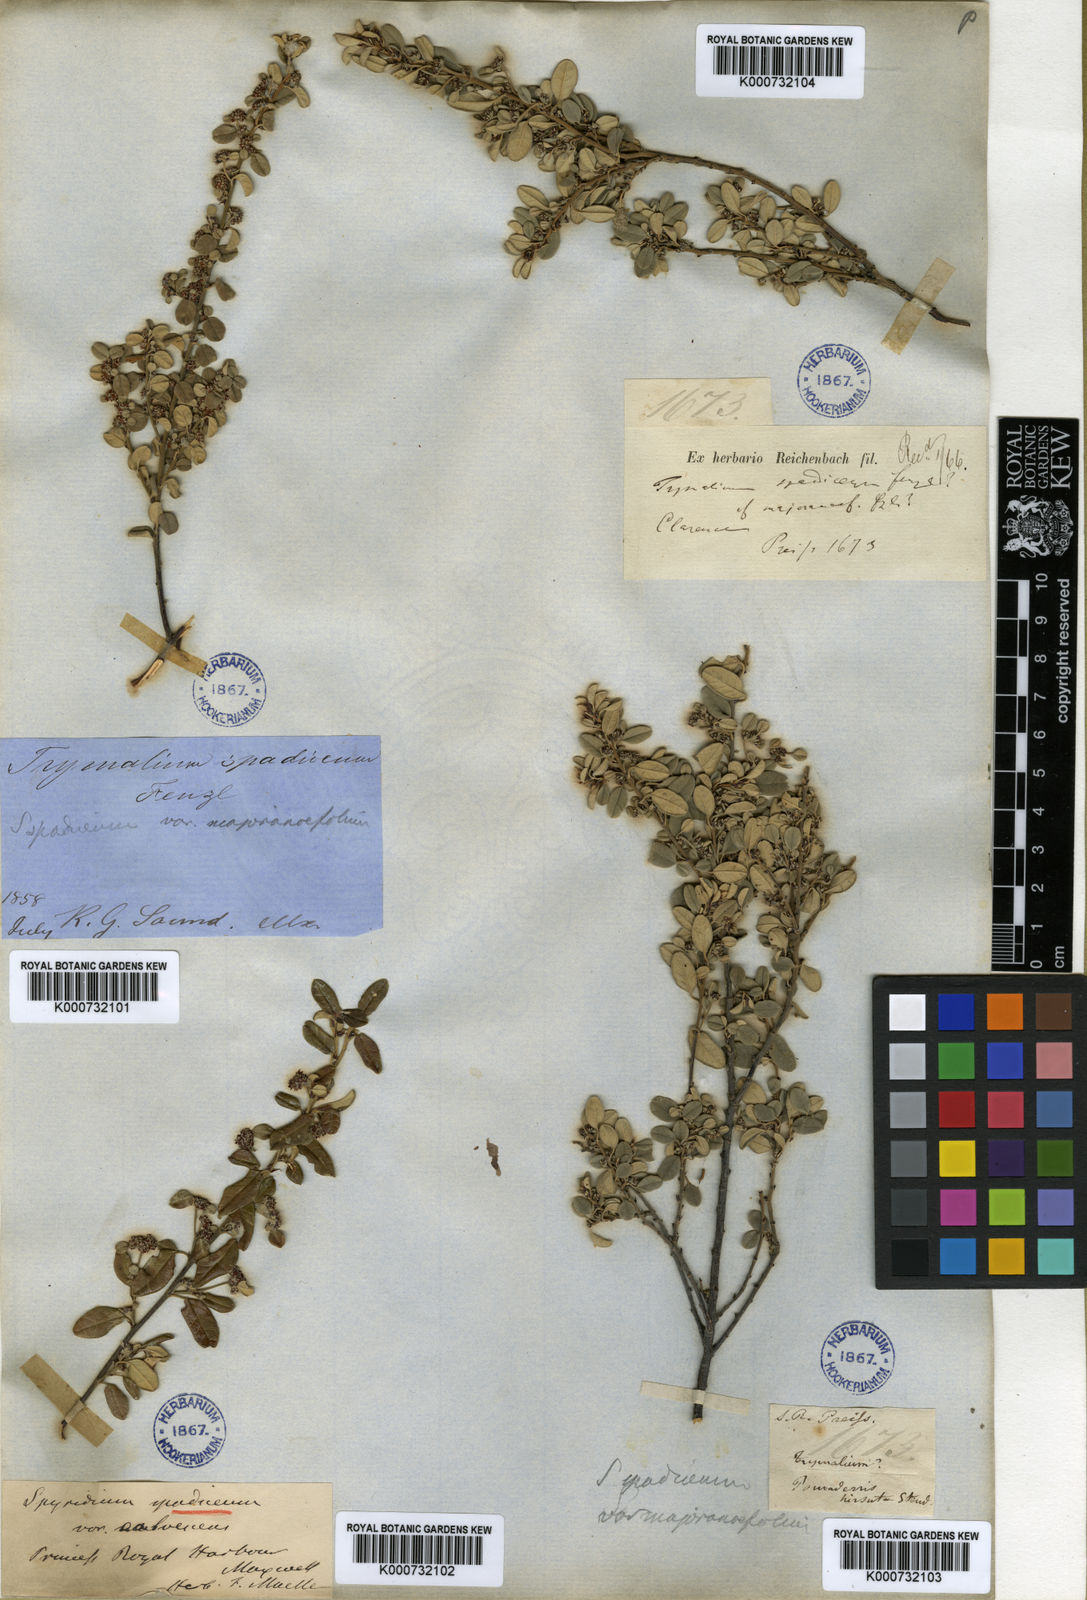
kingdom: Plantae
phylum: Tracheophyta
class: Magnoliopsida
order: Rosales
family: Rhamnaceae
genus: Spyridium
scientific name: Spyridium spadiceum
